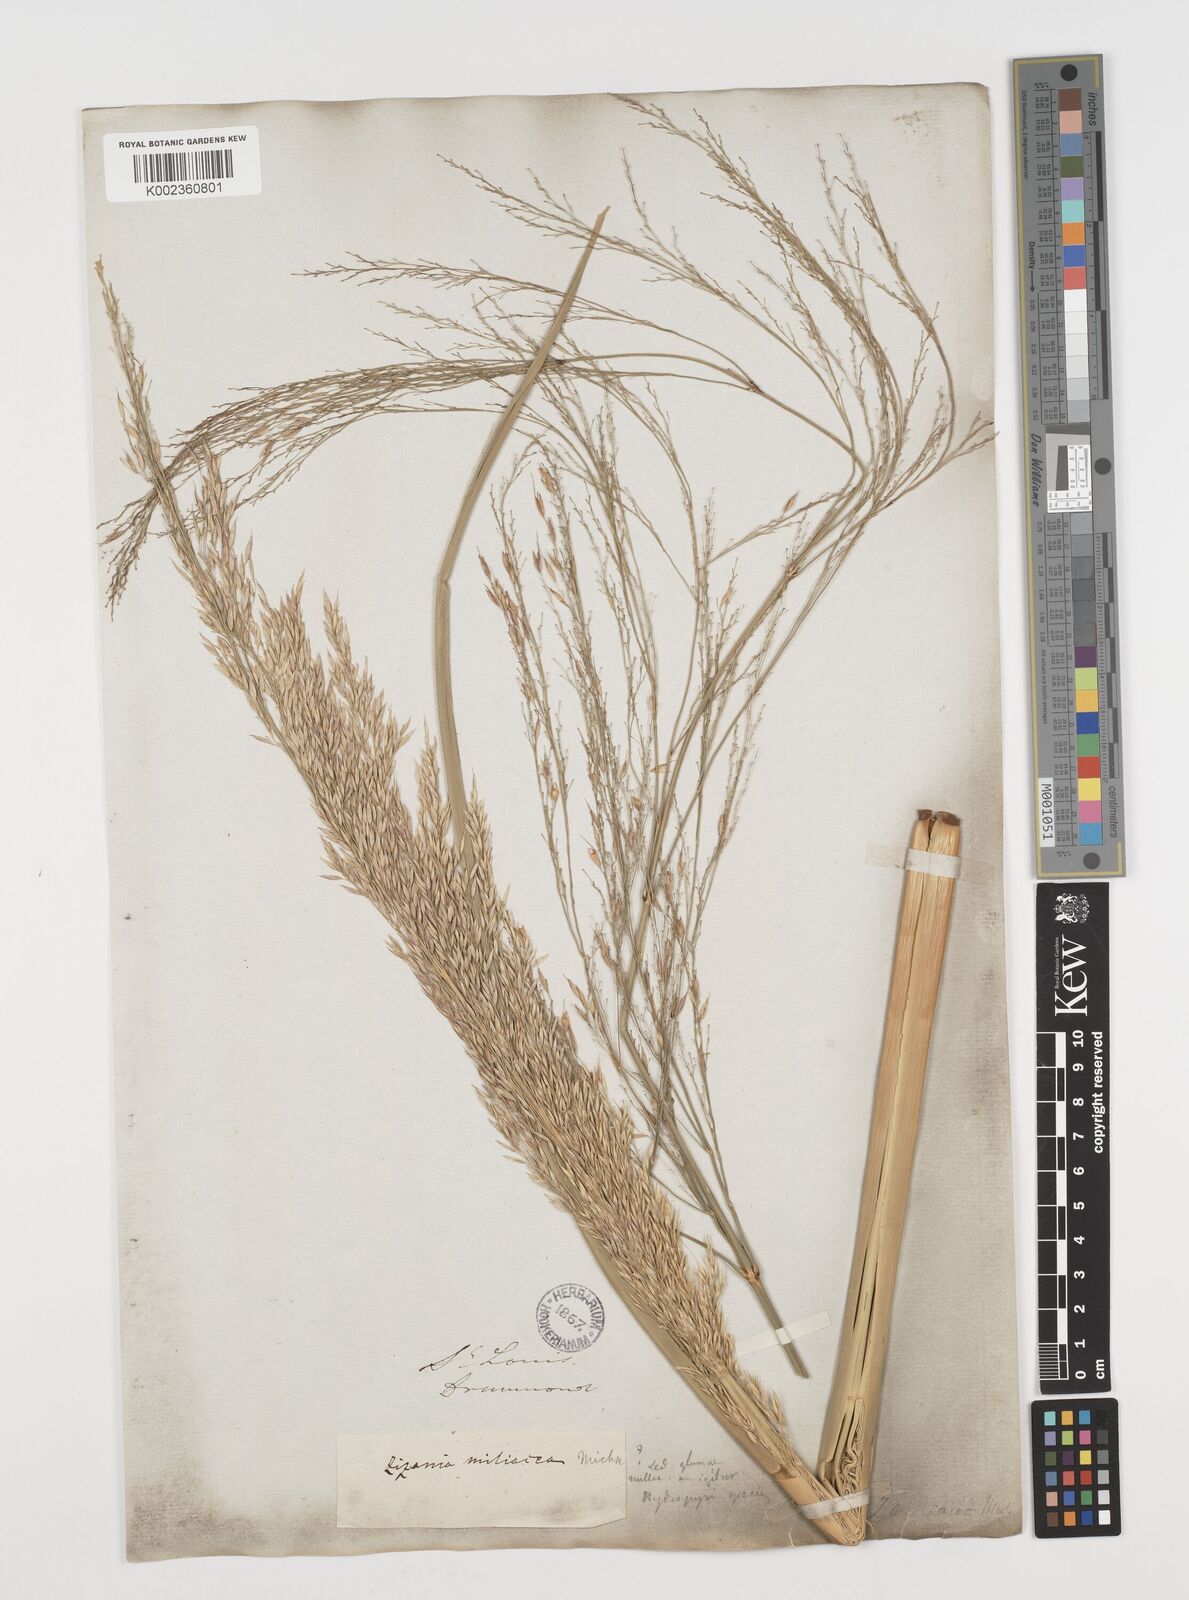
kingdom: Plantae
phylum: Tracheophyta
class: Liliopsida
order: Poales
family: Poaceae
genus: Zizaniopsis
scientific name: Zizaniopsis miliacea
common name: Giant-cutgrass
